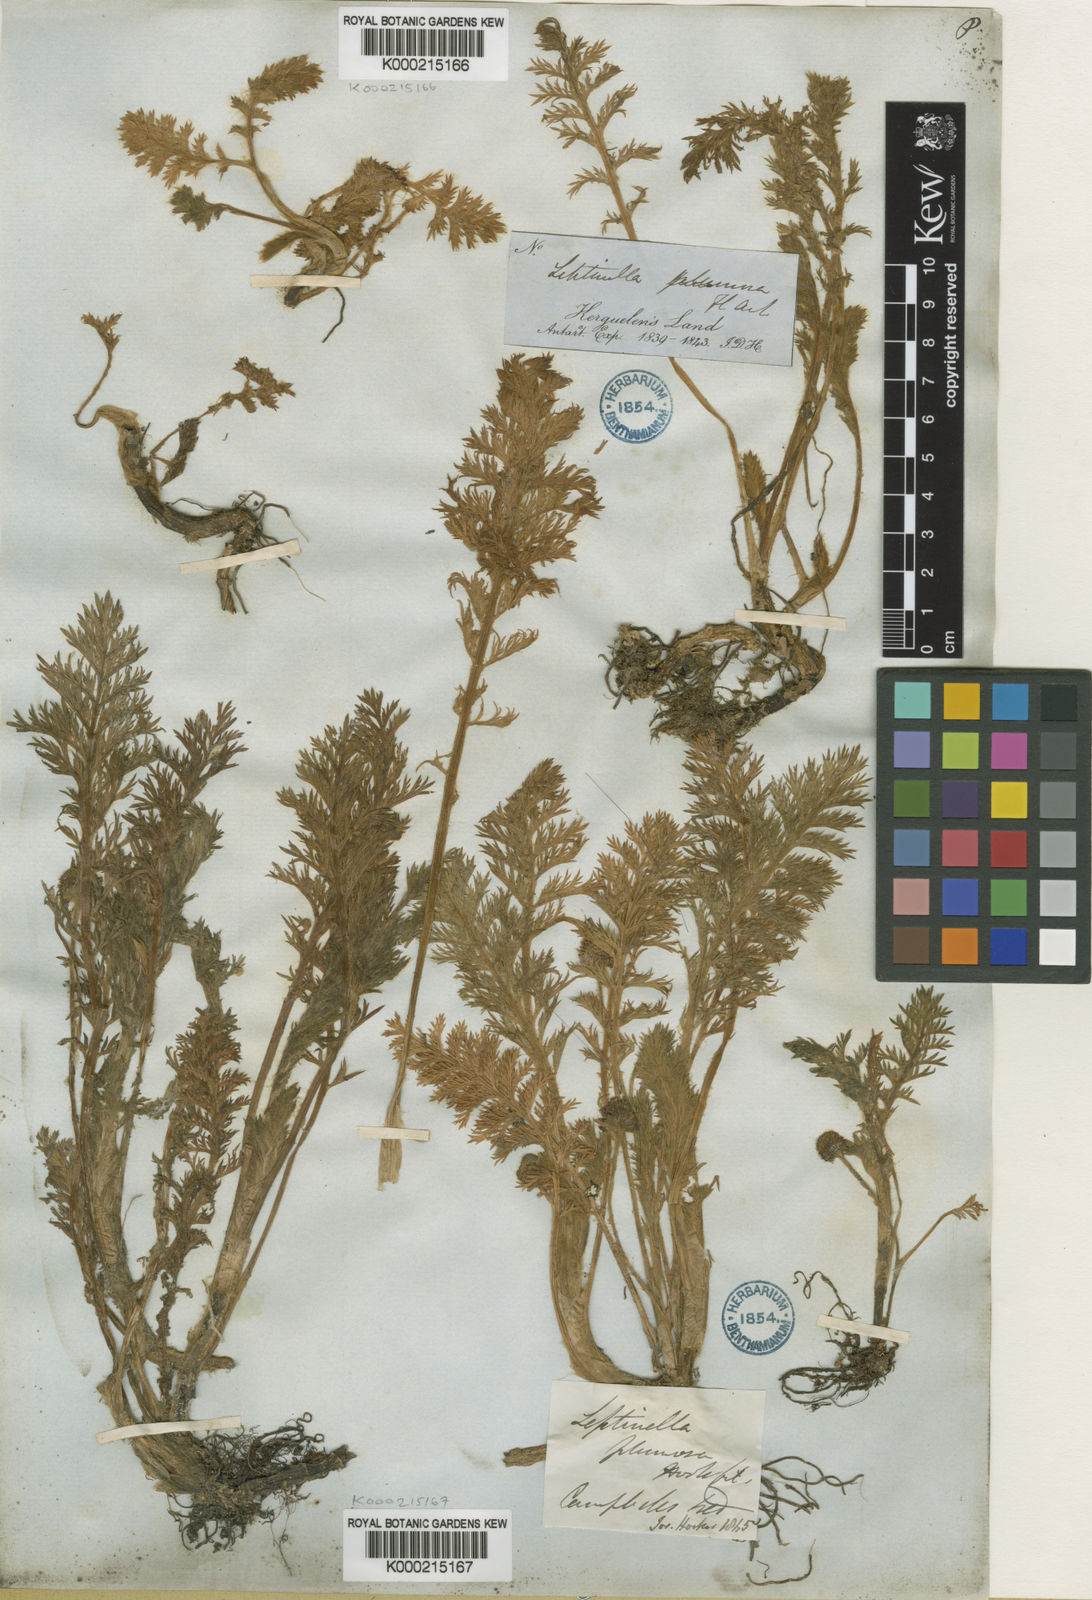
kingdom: Plantae
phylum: Tracheophyta
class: Magnoliopsida
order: Asterales
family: Asteraceae
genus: Leptinella
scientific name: Leptinella
